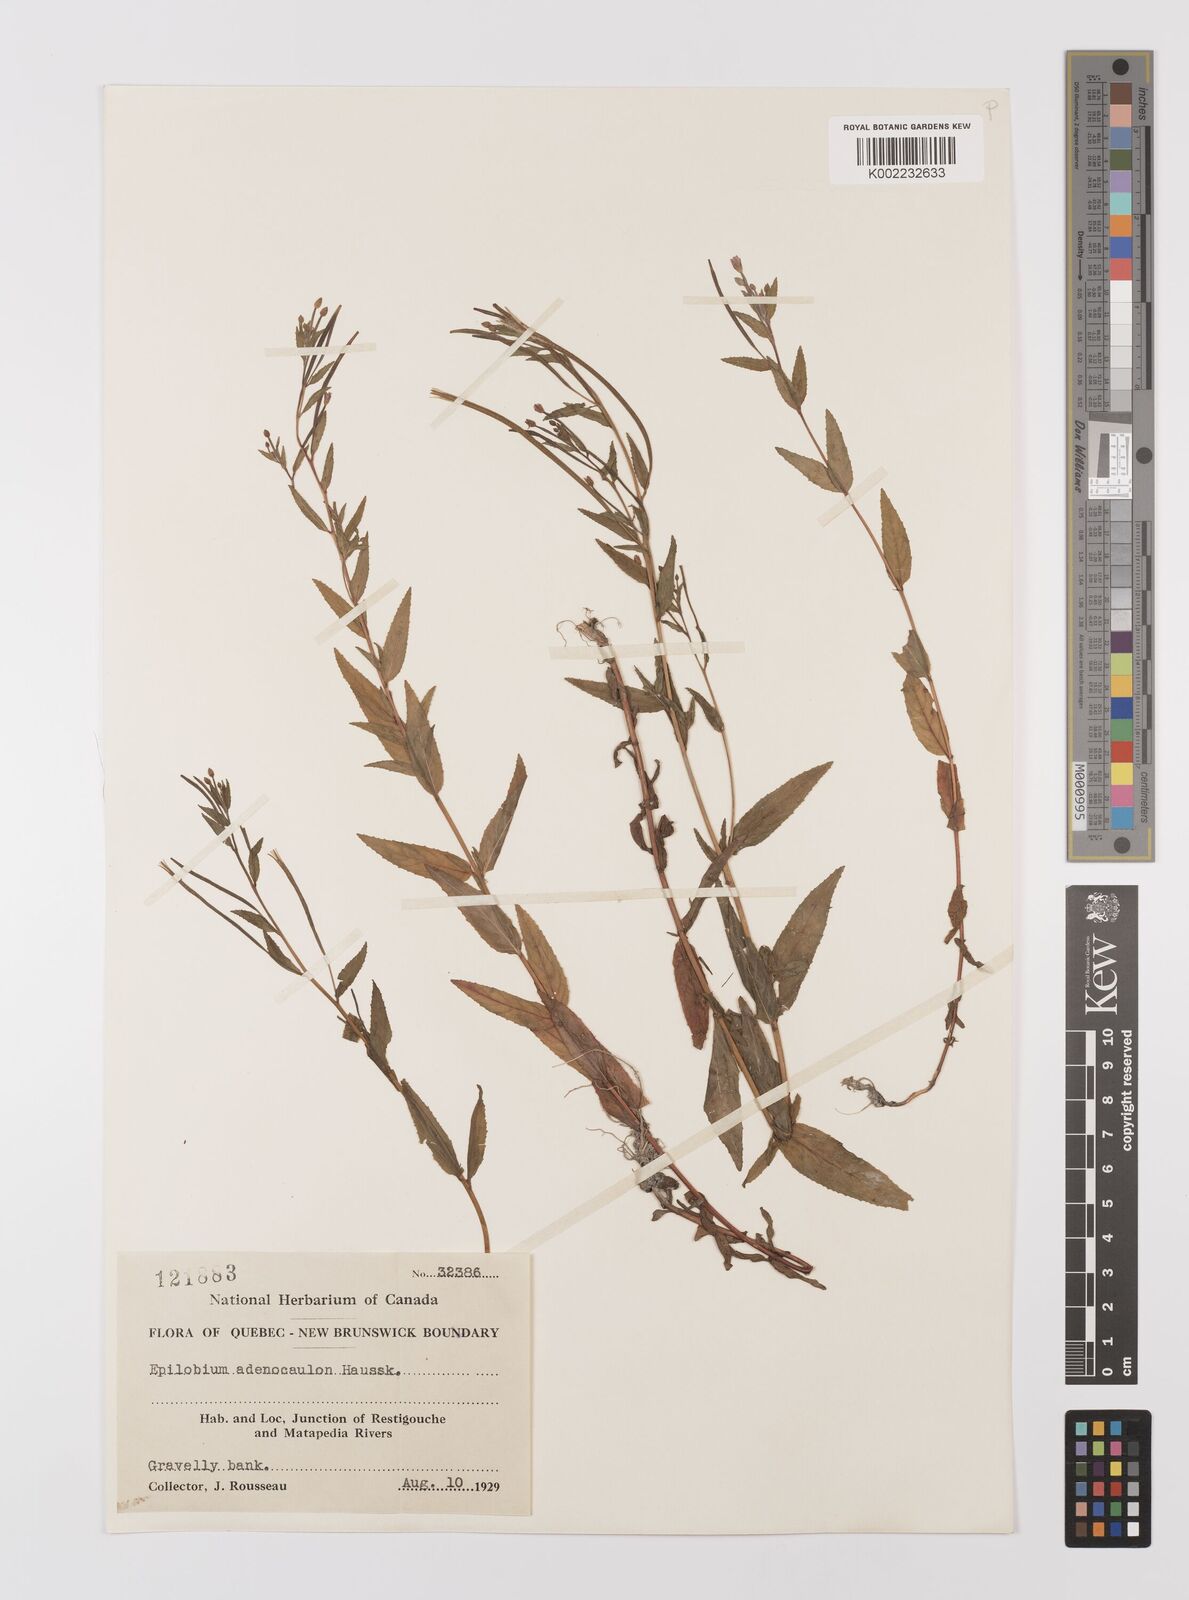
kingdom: Plantae
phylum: Tracheophyta
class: Magnoliopsida
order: Myrtales
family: Onagraceae
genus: Epilobium
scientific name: Epilobium ciliatum
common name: American willowherb
